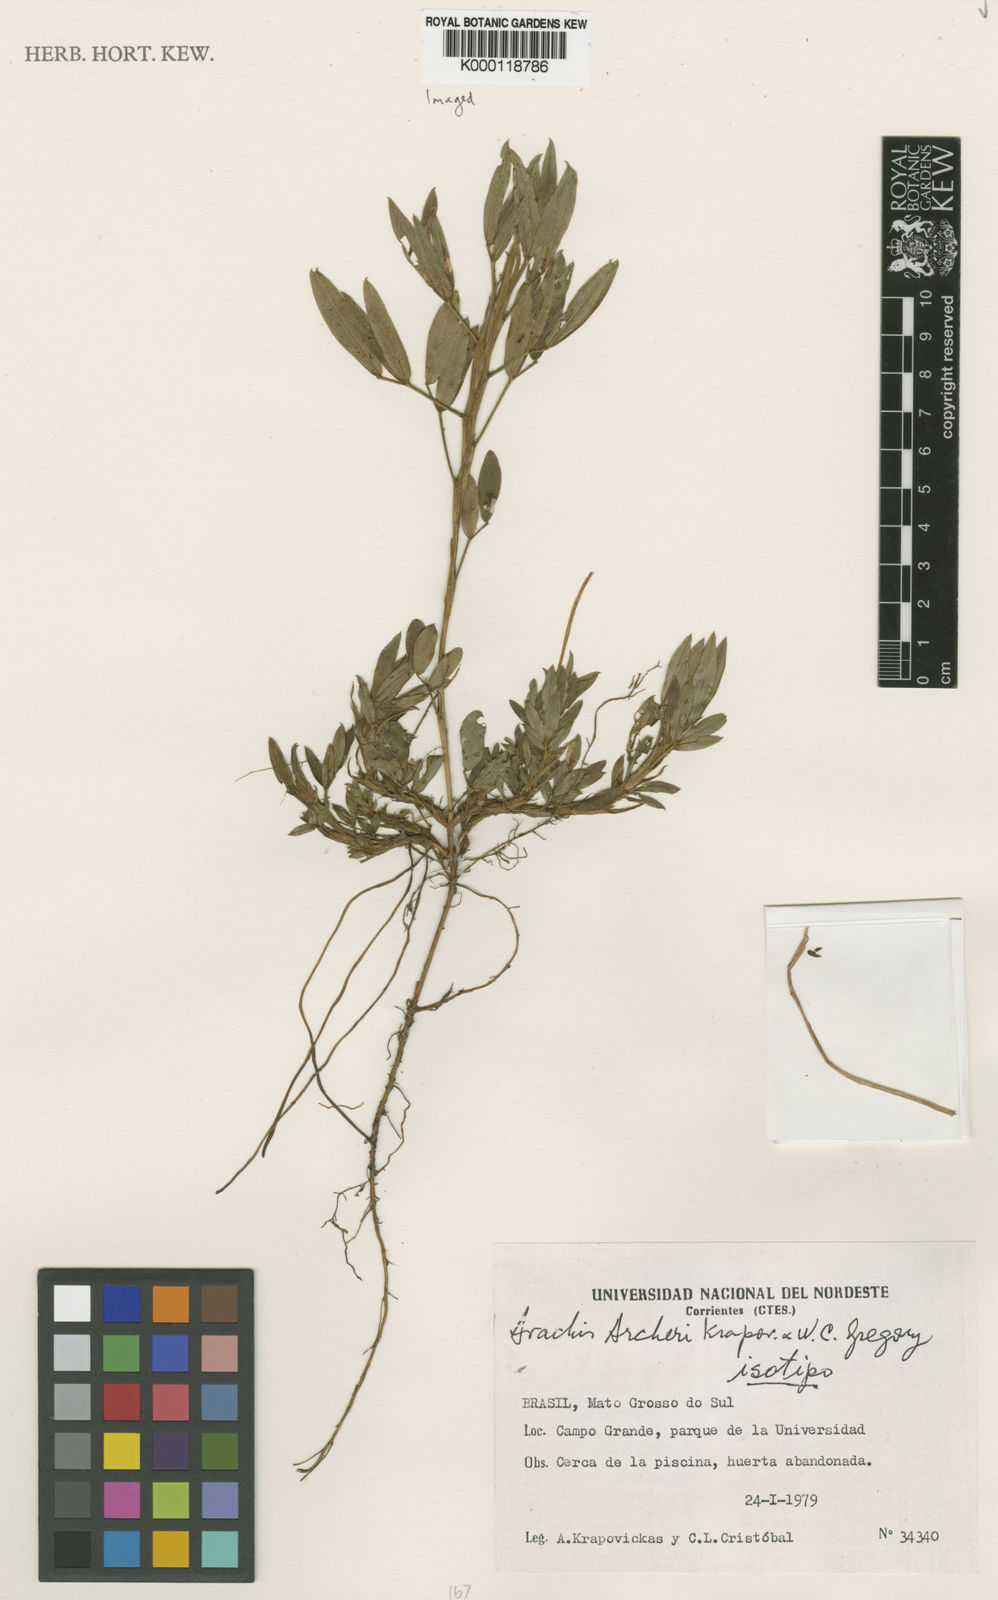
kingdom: Plantae
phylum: Tracheophyta
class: Magnoliopsida
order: Fabales
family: Fabaceae
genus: Arachis
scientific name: Arachis archeri
